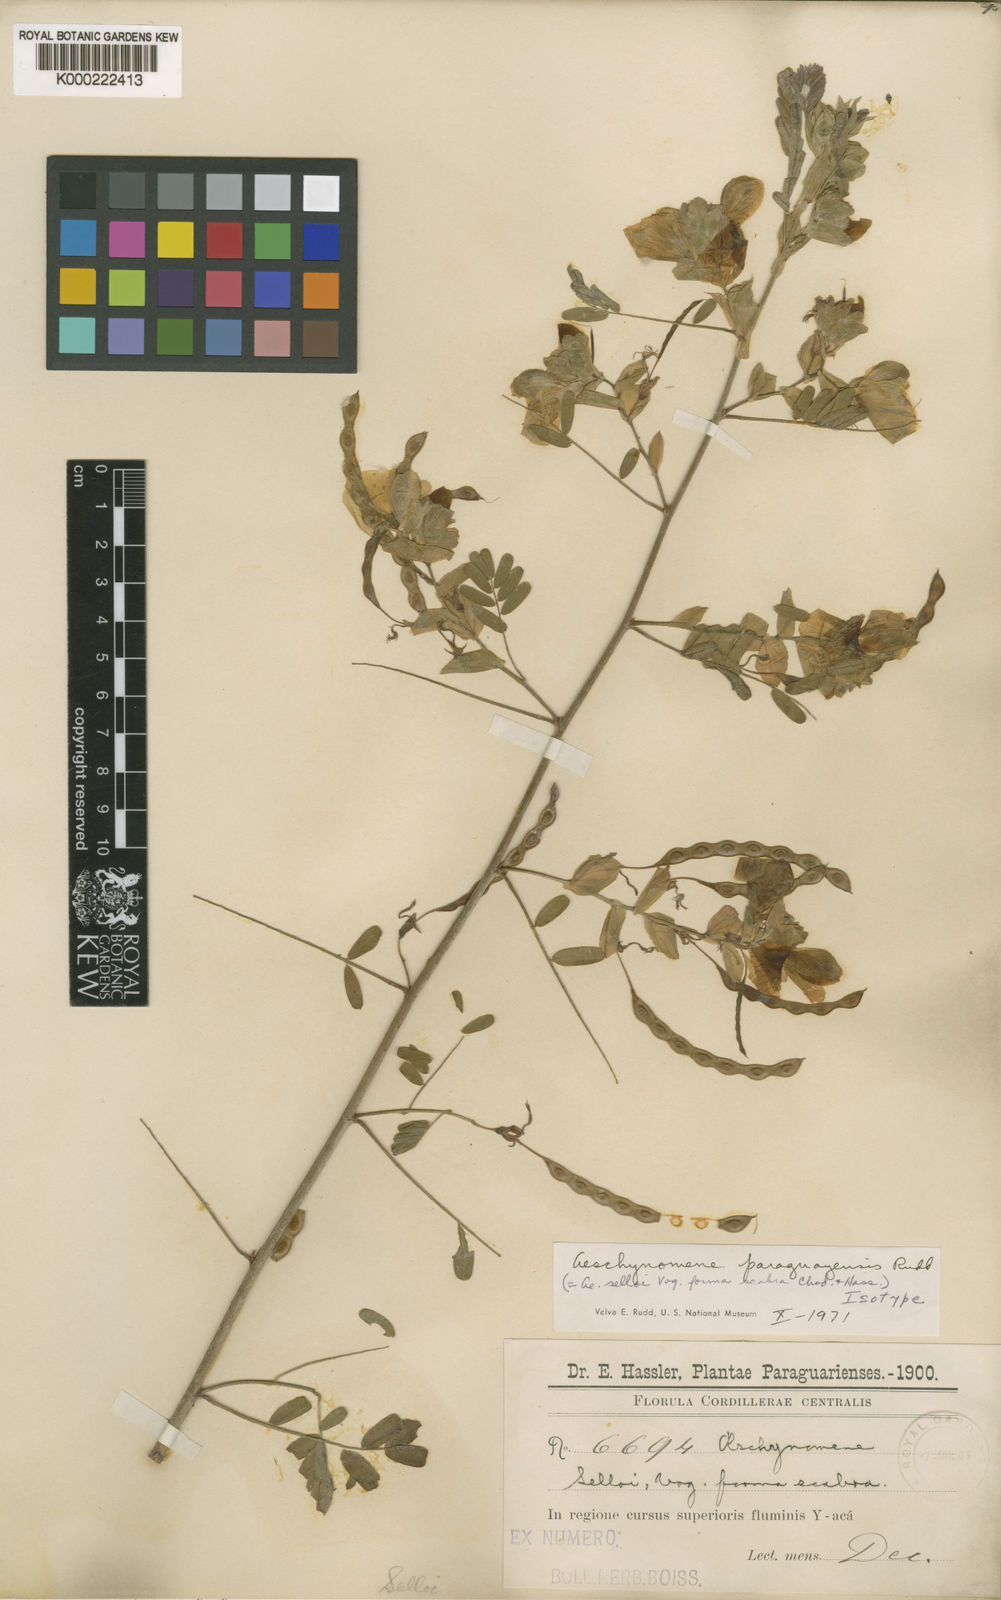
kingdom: Plantae
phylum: Tracheophyta
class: Magnoliopsida
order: Fabales
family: Fabaceae
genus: Aeschynomene
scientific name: Aeschynomene paraguayensis
